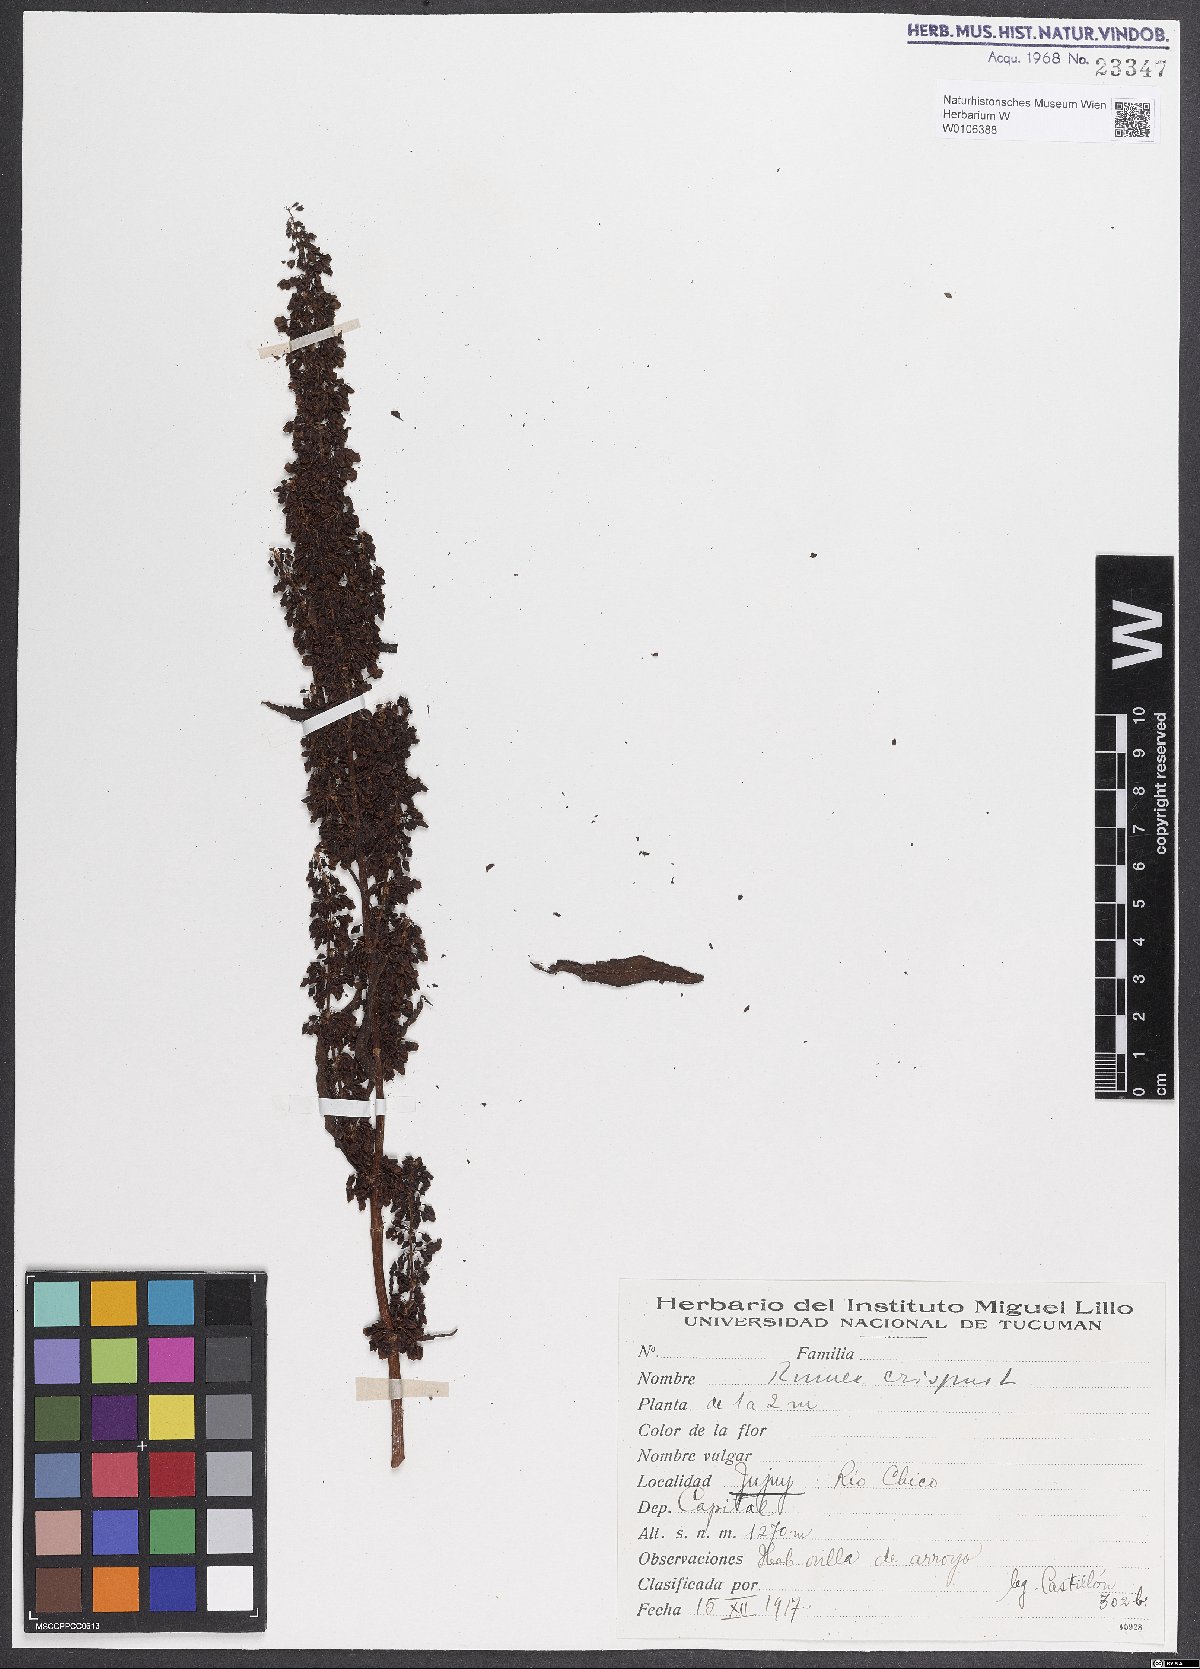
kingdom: Plantae
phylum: Tracheophyta
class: Magnoliopsida
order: Caryophyllales
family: Polygonaceae
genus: Rumex
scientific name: Rumex crispus
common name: Curled dock
